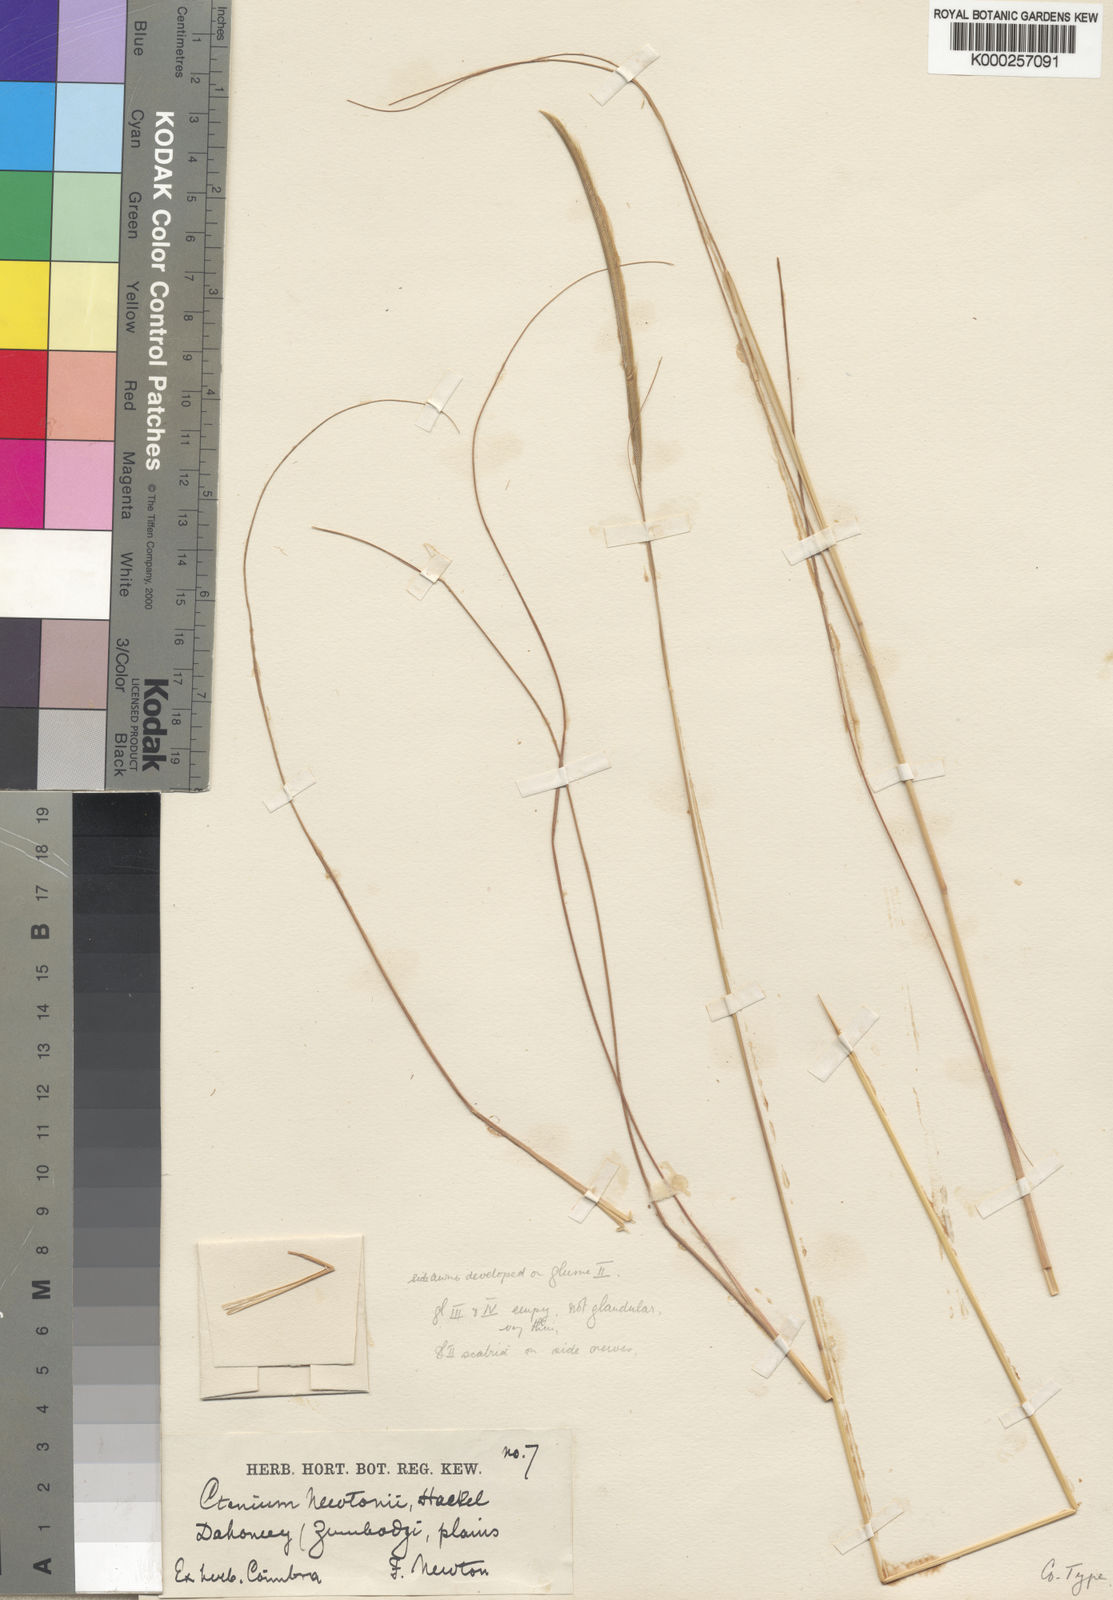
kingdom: Plantae
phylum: Tracheophyta
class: Liliopsida
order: Poales
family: Poaceae
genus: Ctenium
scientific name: Ctenium newtonii
